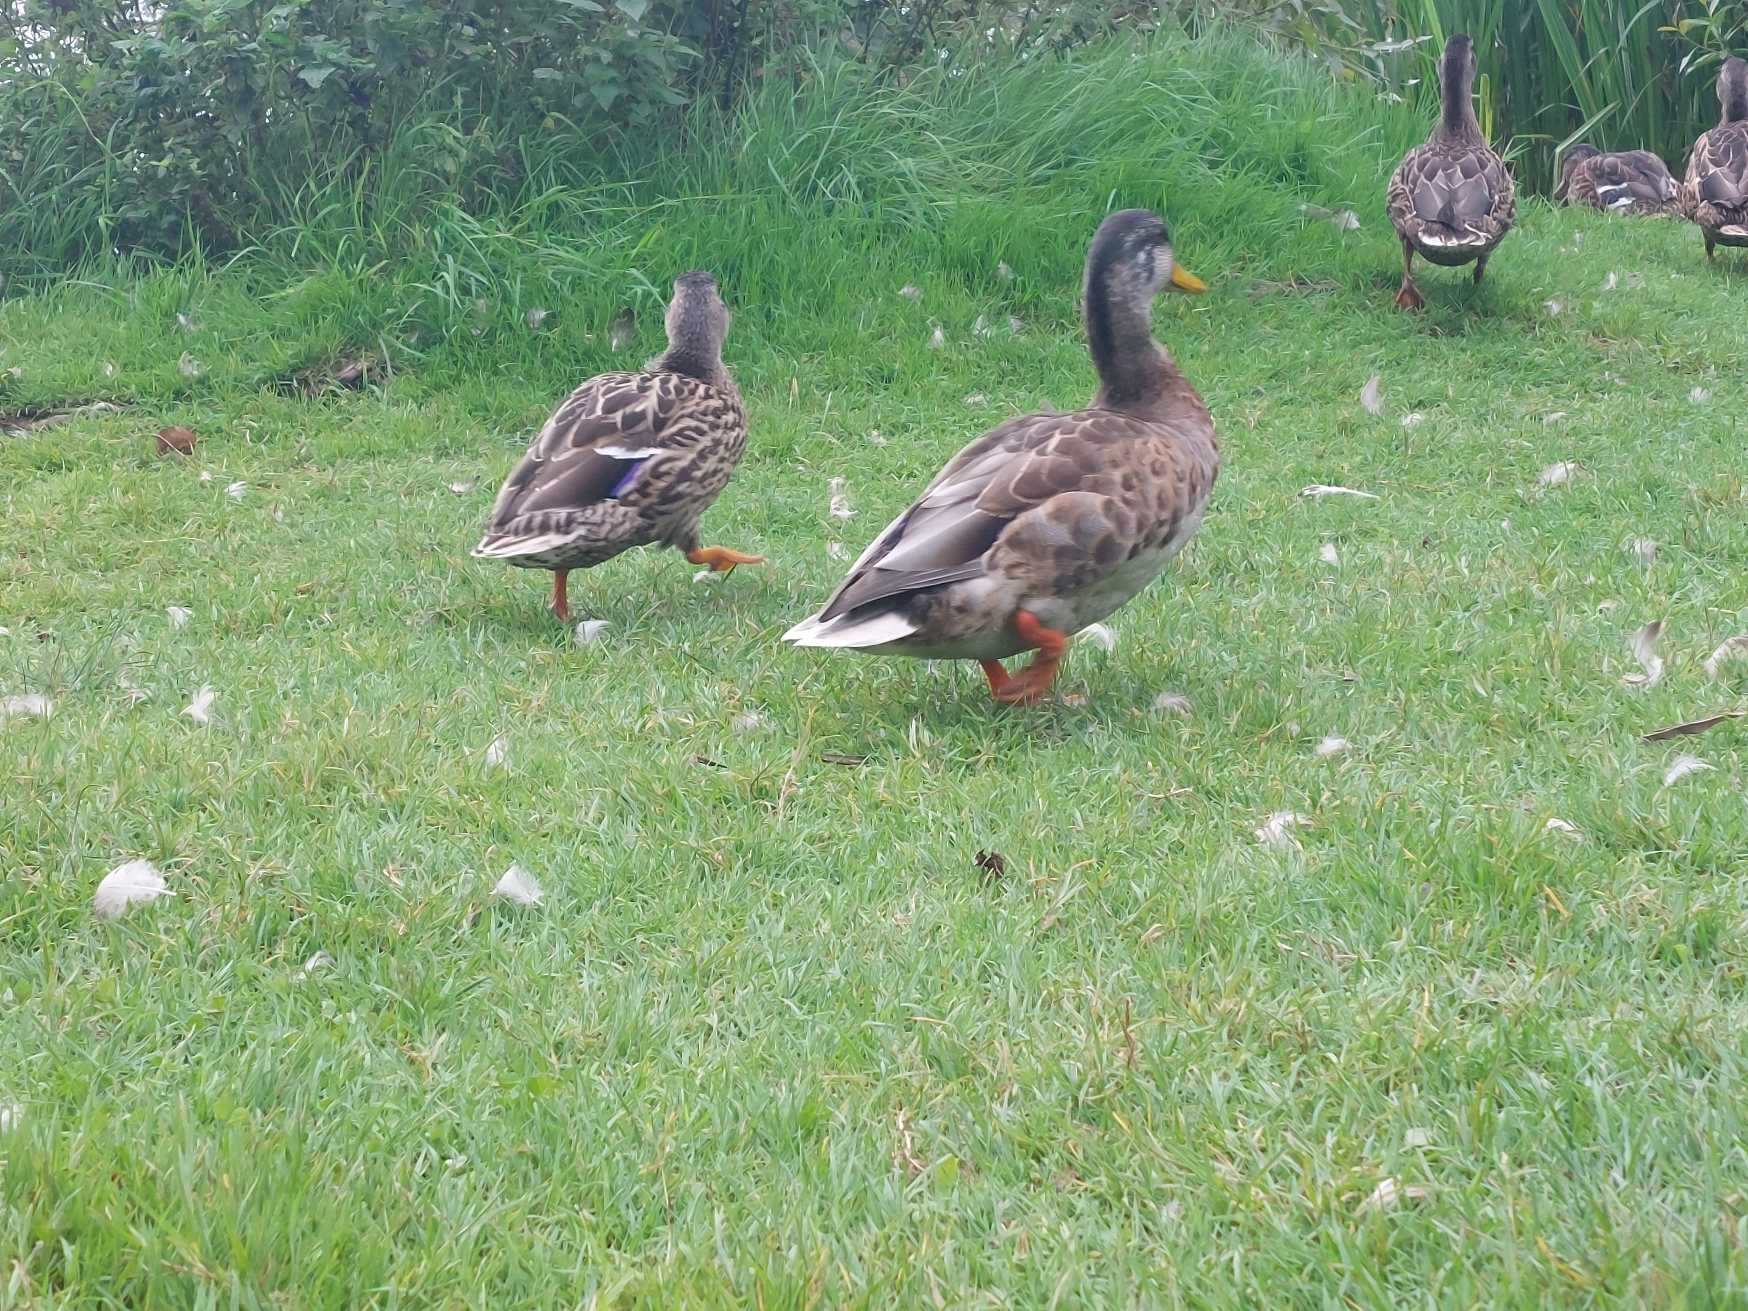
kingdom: Animalia
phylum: Chordata
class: Aves
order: Anseriformes
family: Anatidae
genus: Anas
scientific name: Anas platyrhynchos
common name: Gråand
